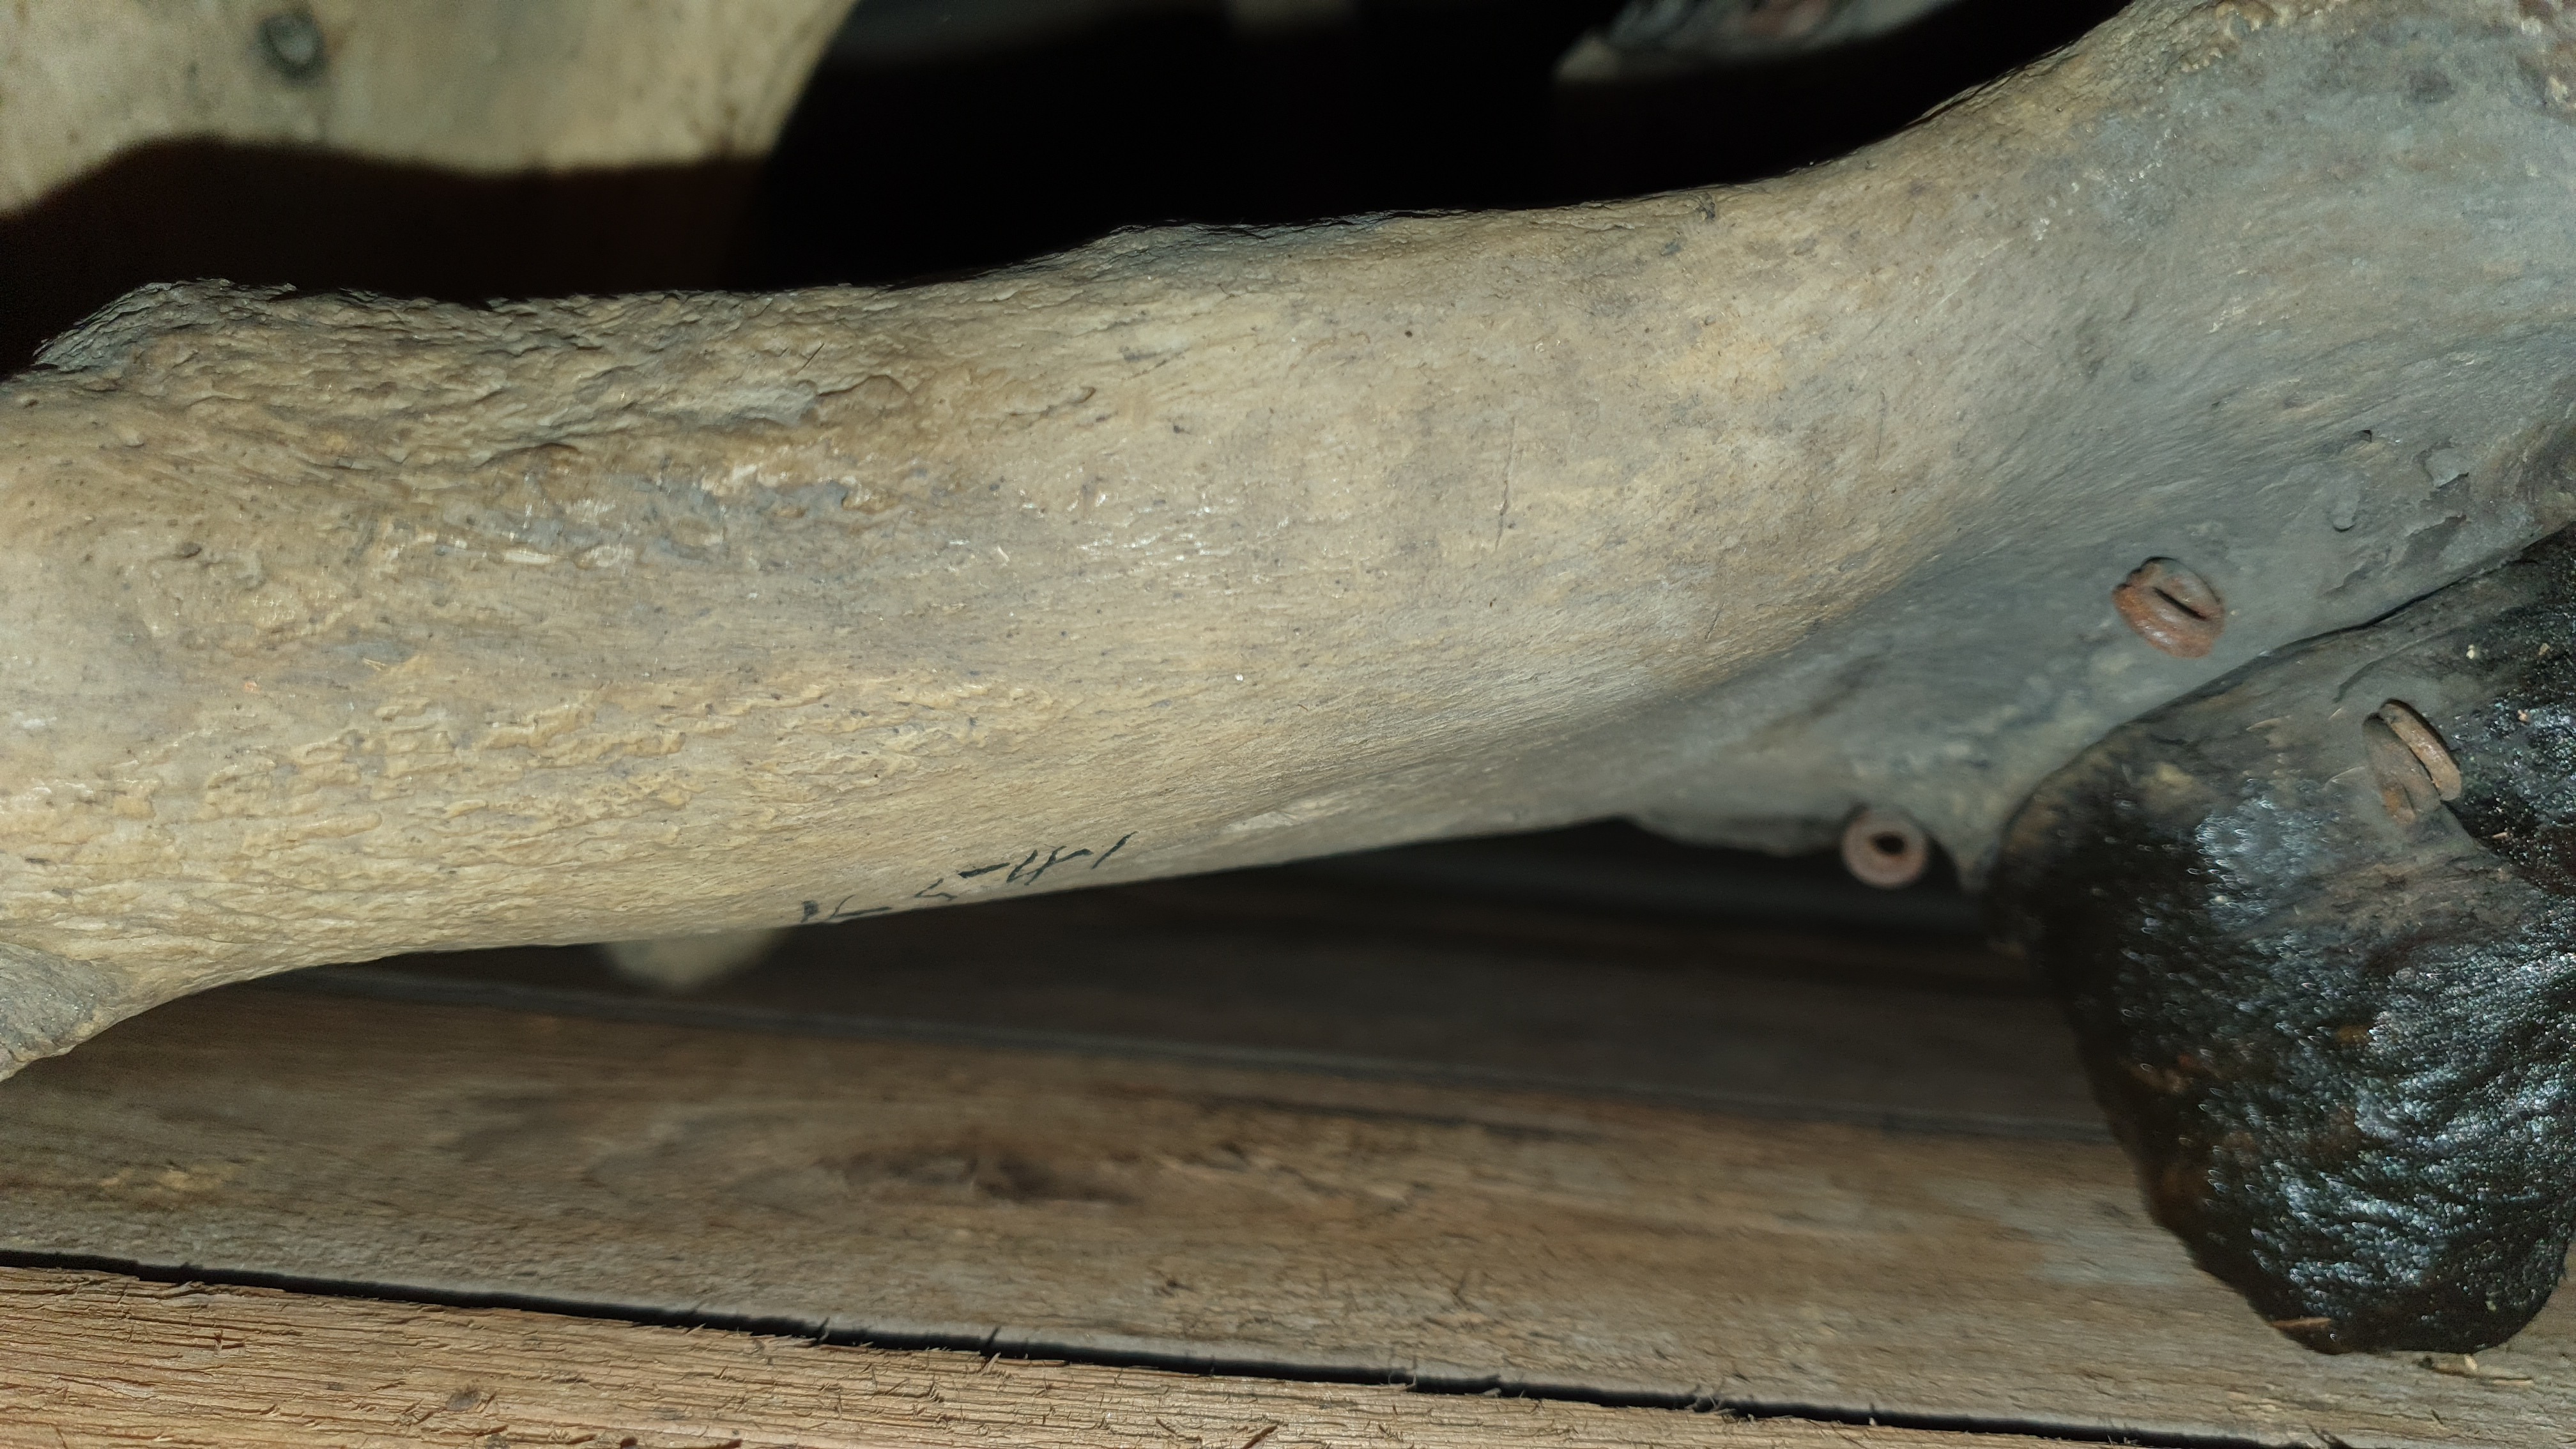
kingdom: Animalia
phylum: Chordata
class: Mammalia
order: Carnivora
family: Odobenidae
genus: Odobenus
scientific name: Odobenus rosmarus
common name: Walrus
